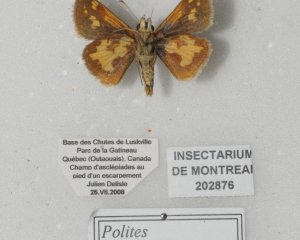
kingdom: Animalia
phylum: Arthropoda
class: Insecta
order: Lepidoptera
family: Hesperiidae
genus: Polites
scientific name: Polites coras
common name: Peck's Skipper
